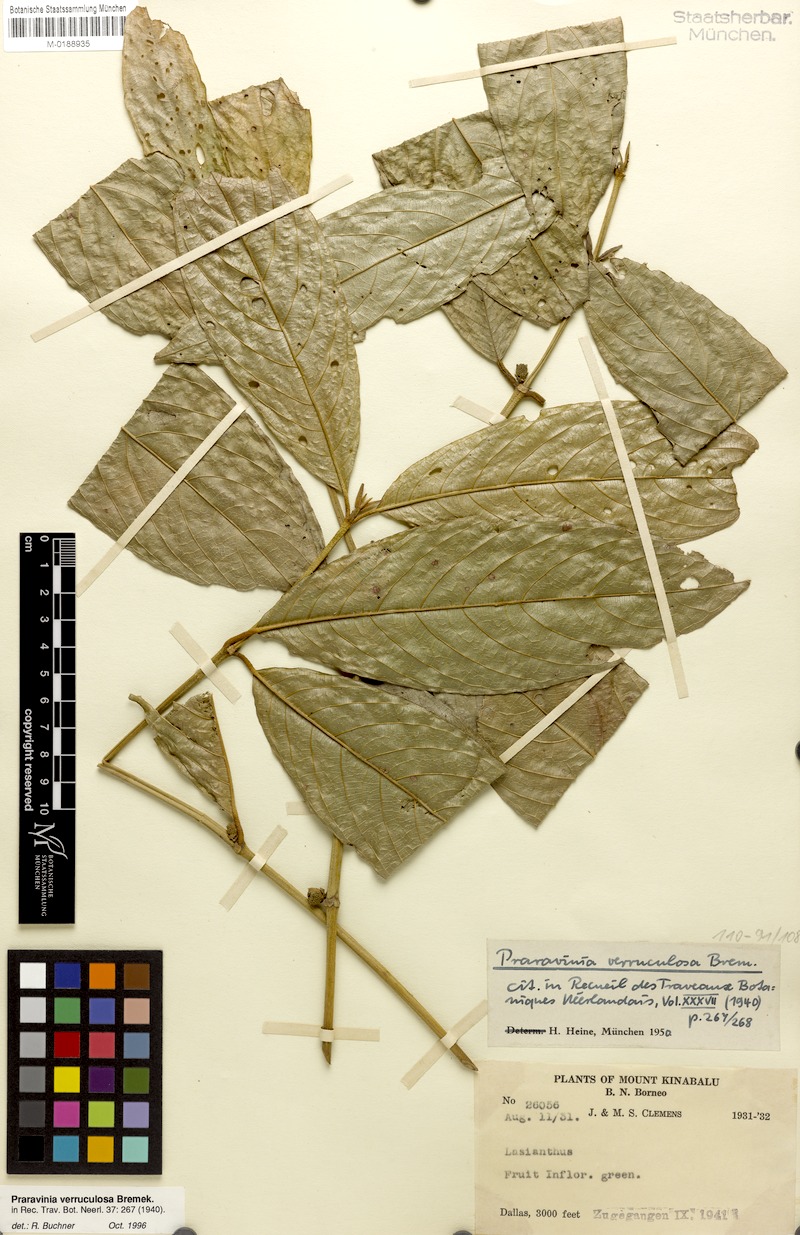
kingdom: Plantae
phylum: Tracheophyta
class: Magnoliopsida
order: Gentianales
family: Rubiaceae
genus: Praravinia
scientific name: Praravinia verruculosa
